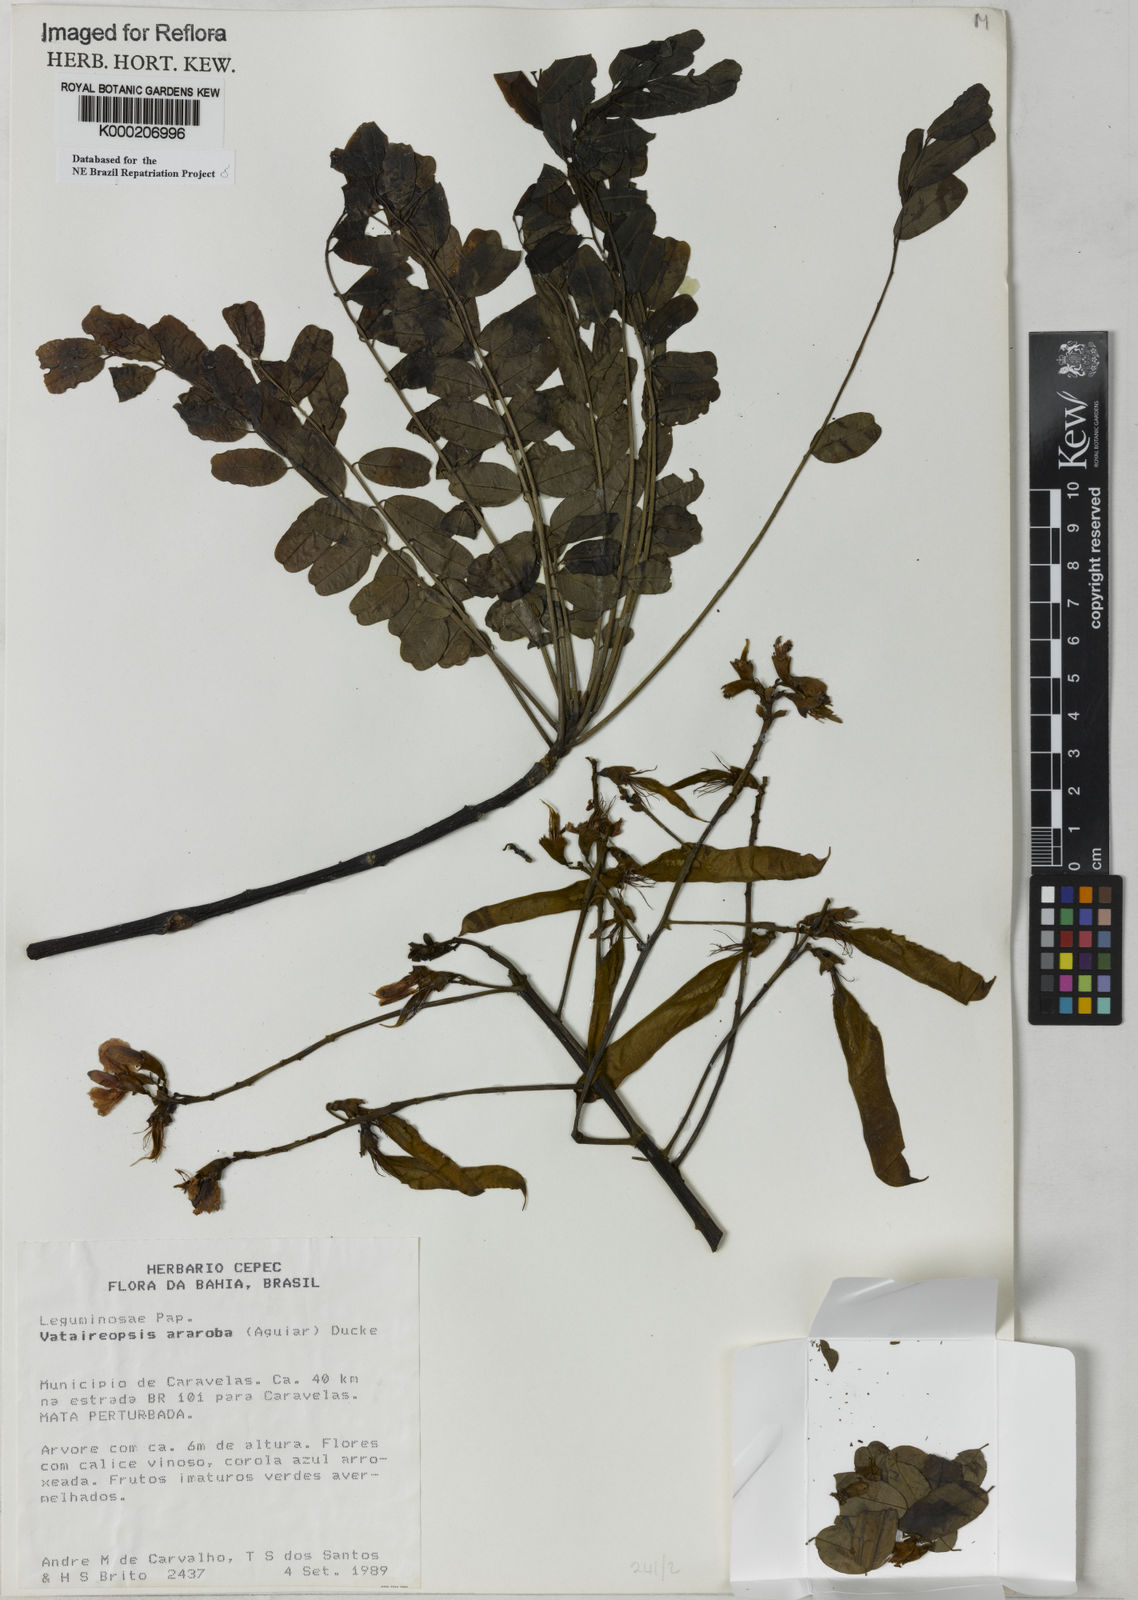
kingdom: Plantae
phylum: Tracheophyta
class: Magnoliopsida
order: Fabales
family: Fabaceae
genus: Vataireopsis
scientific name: Vataireopsis araroba
